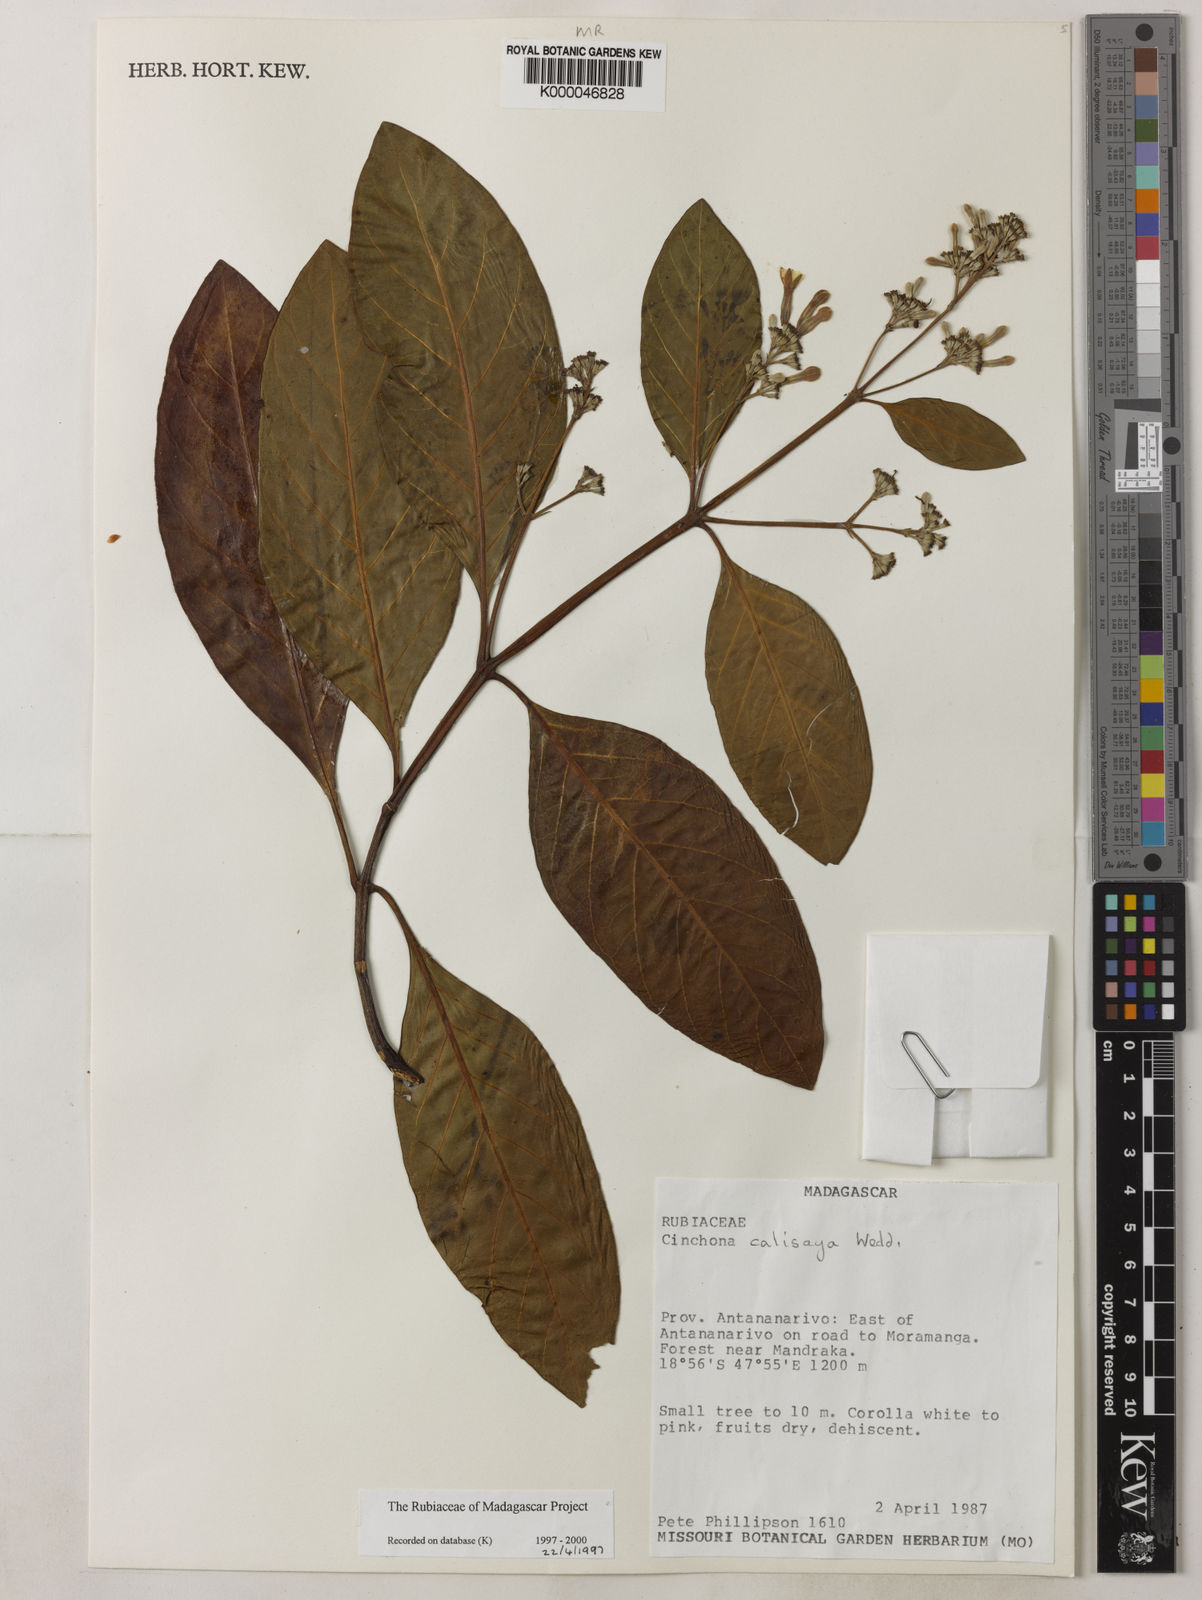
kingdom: Plantae
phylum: Tracheophyta
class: Magnoliopsida
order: Gentianales
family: Rubiaceae
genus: Cinchona
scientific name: Cinchona calisaya
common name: Ledgerbark
